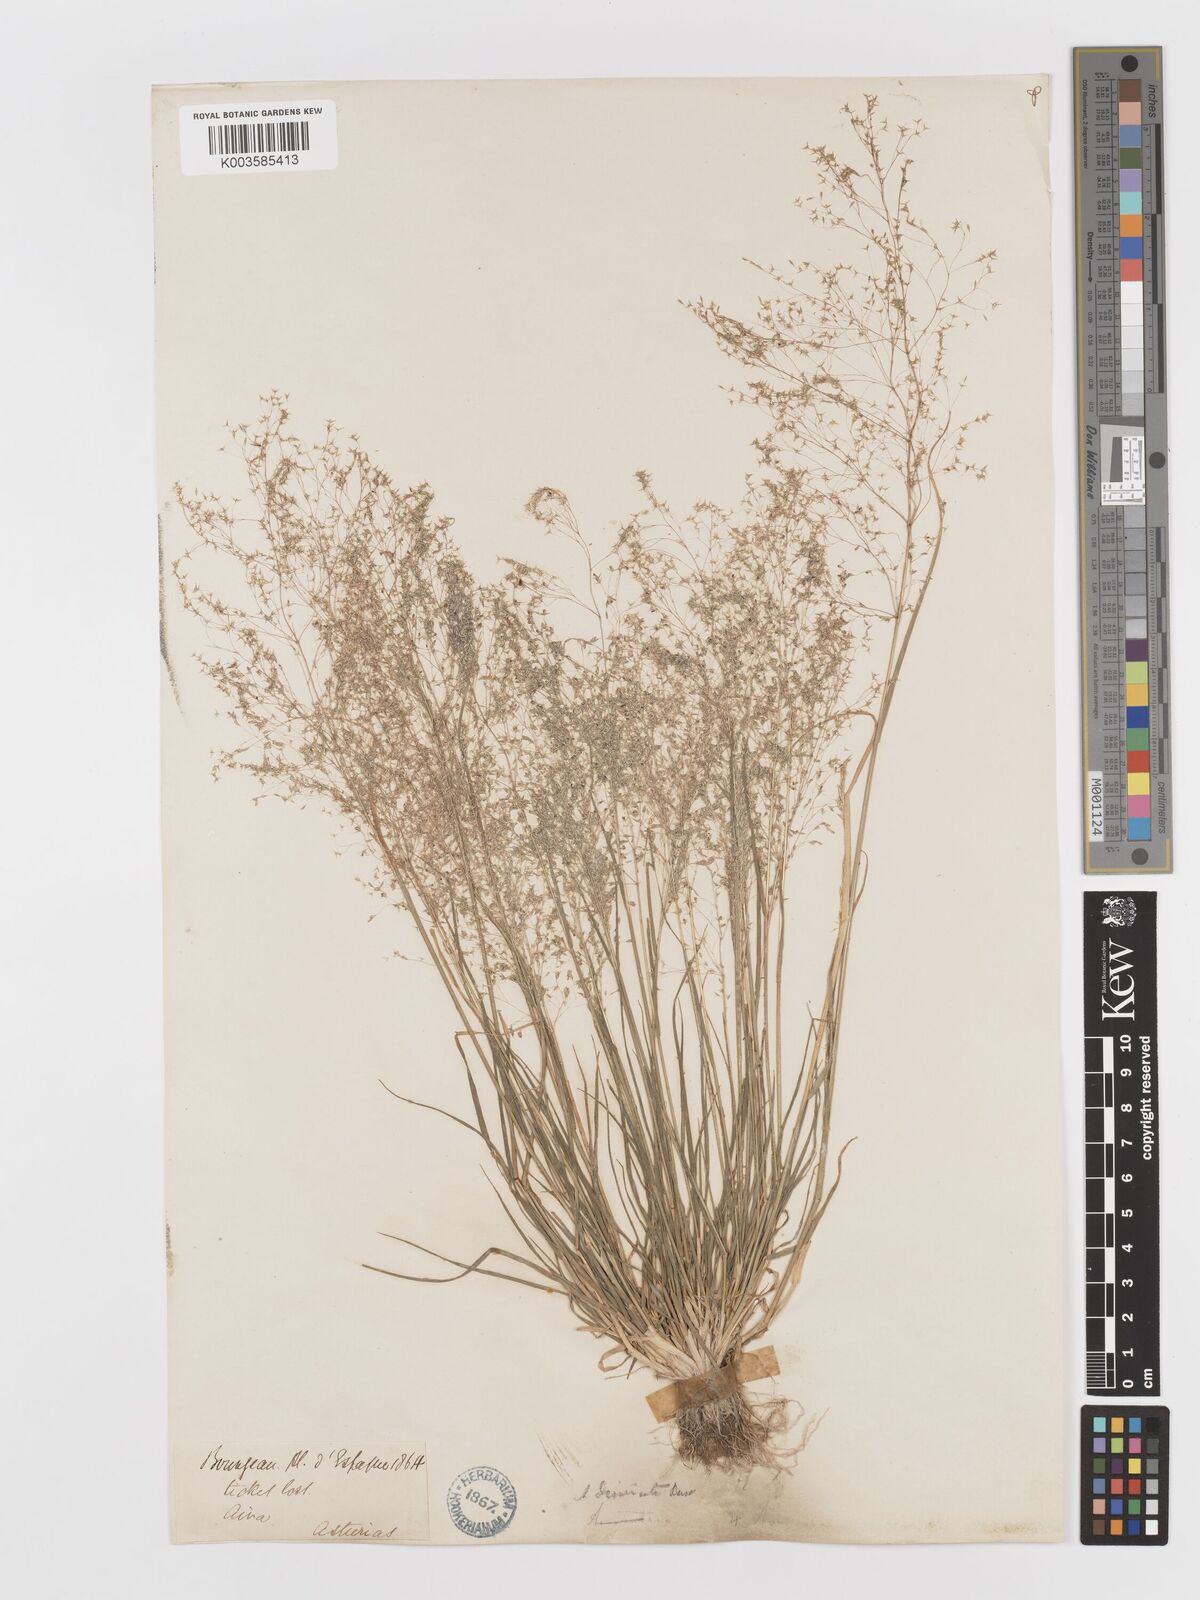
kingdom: Plantae
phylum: Tracheophyta
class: Liliopsida
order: Poales
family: Poaceae
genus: Antinoria
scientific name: Antinoria agrostidea
